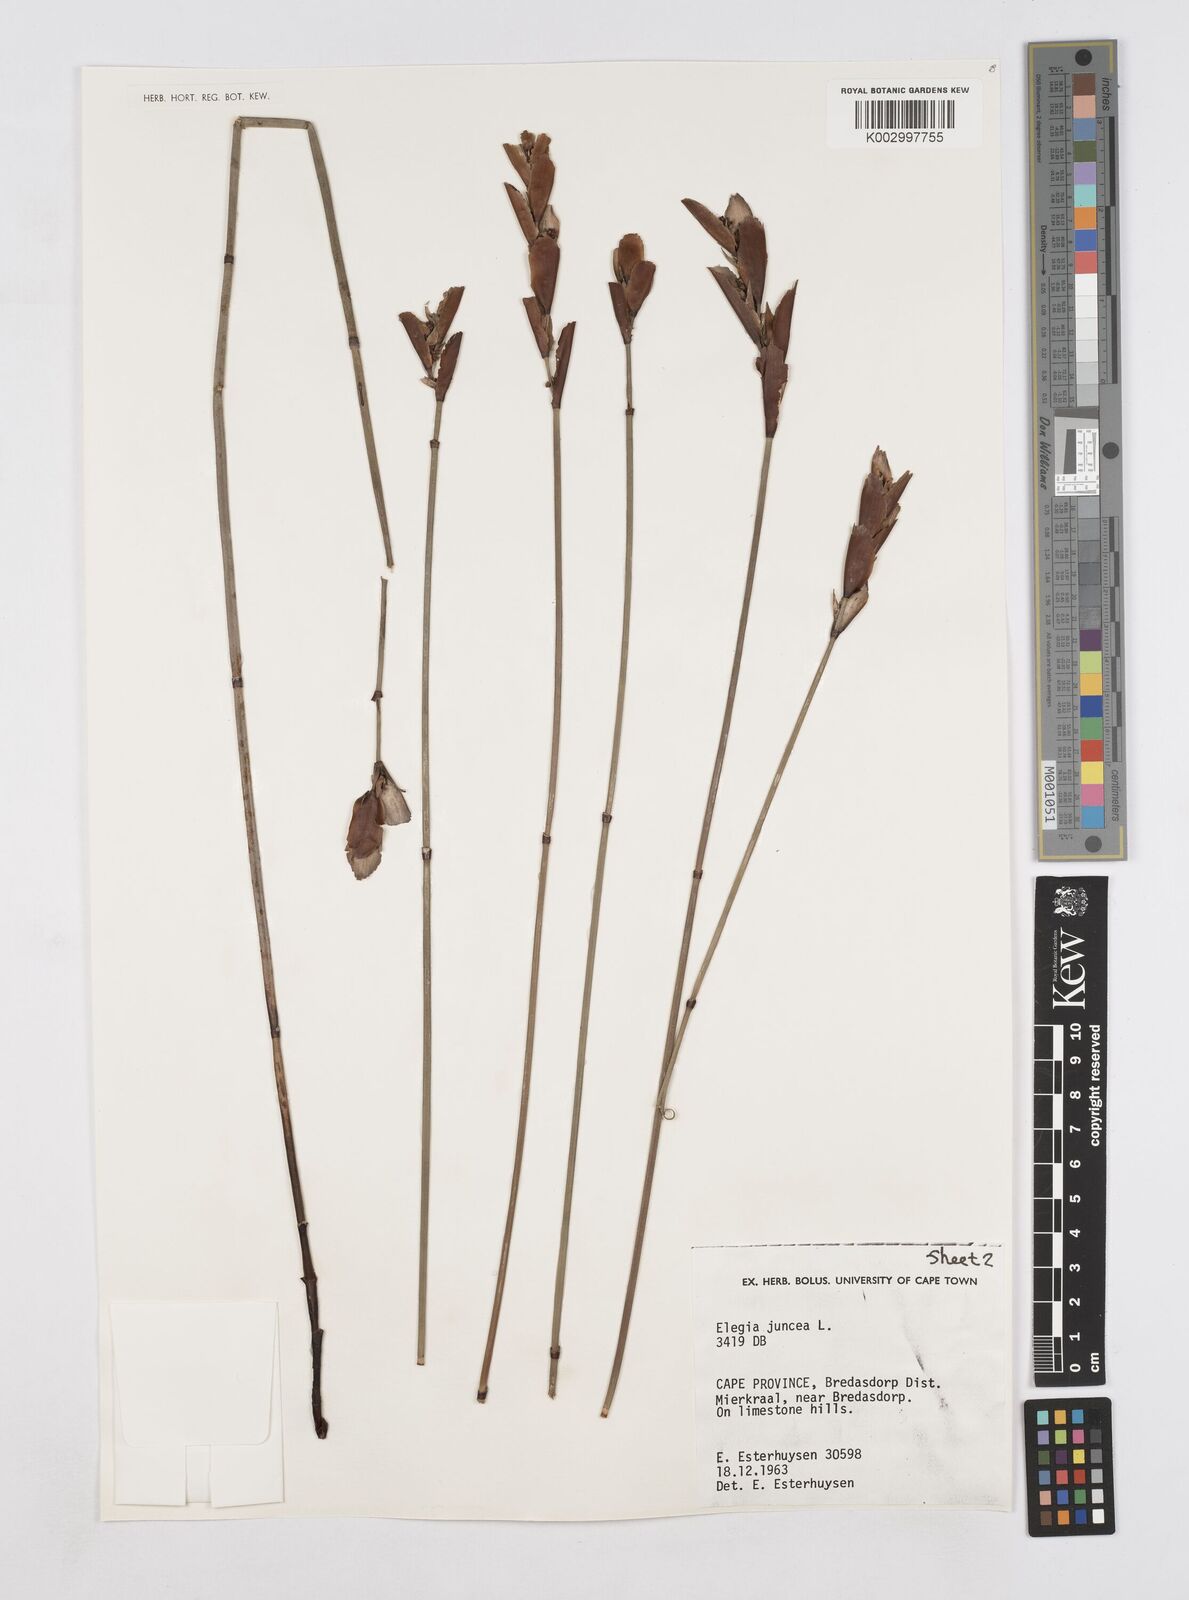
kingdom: Plantae
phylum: Tracheophyta
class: Liliopsida
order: Poales
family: Restionaceae
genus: Elegia
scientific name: Elegia juncea
